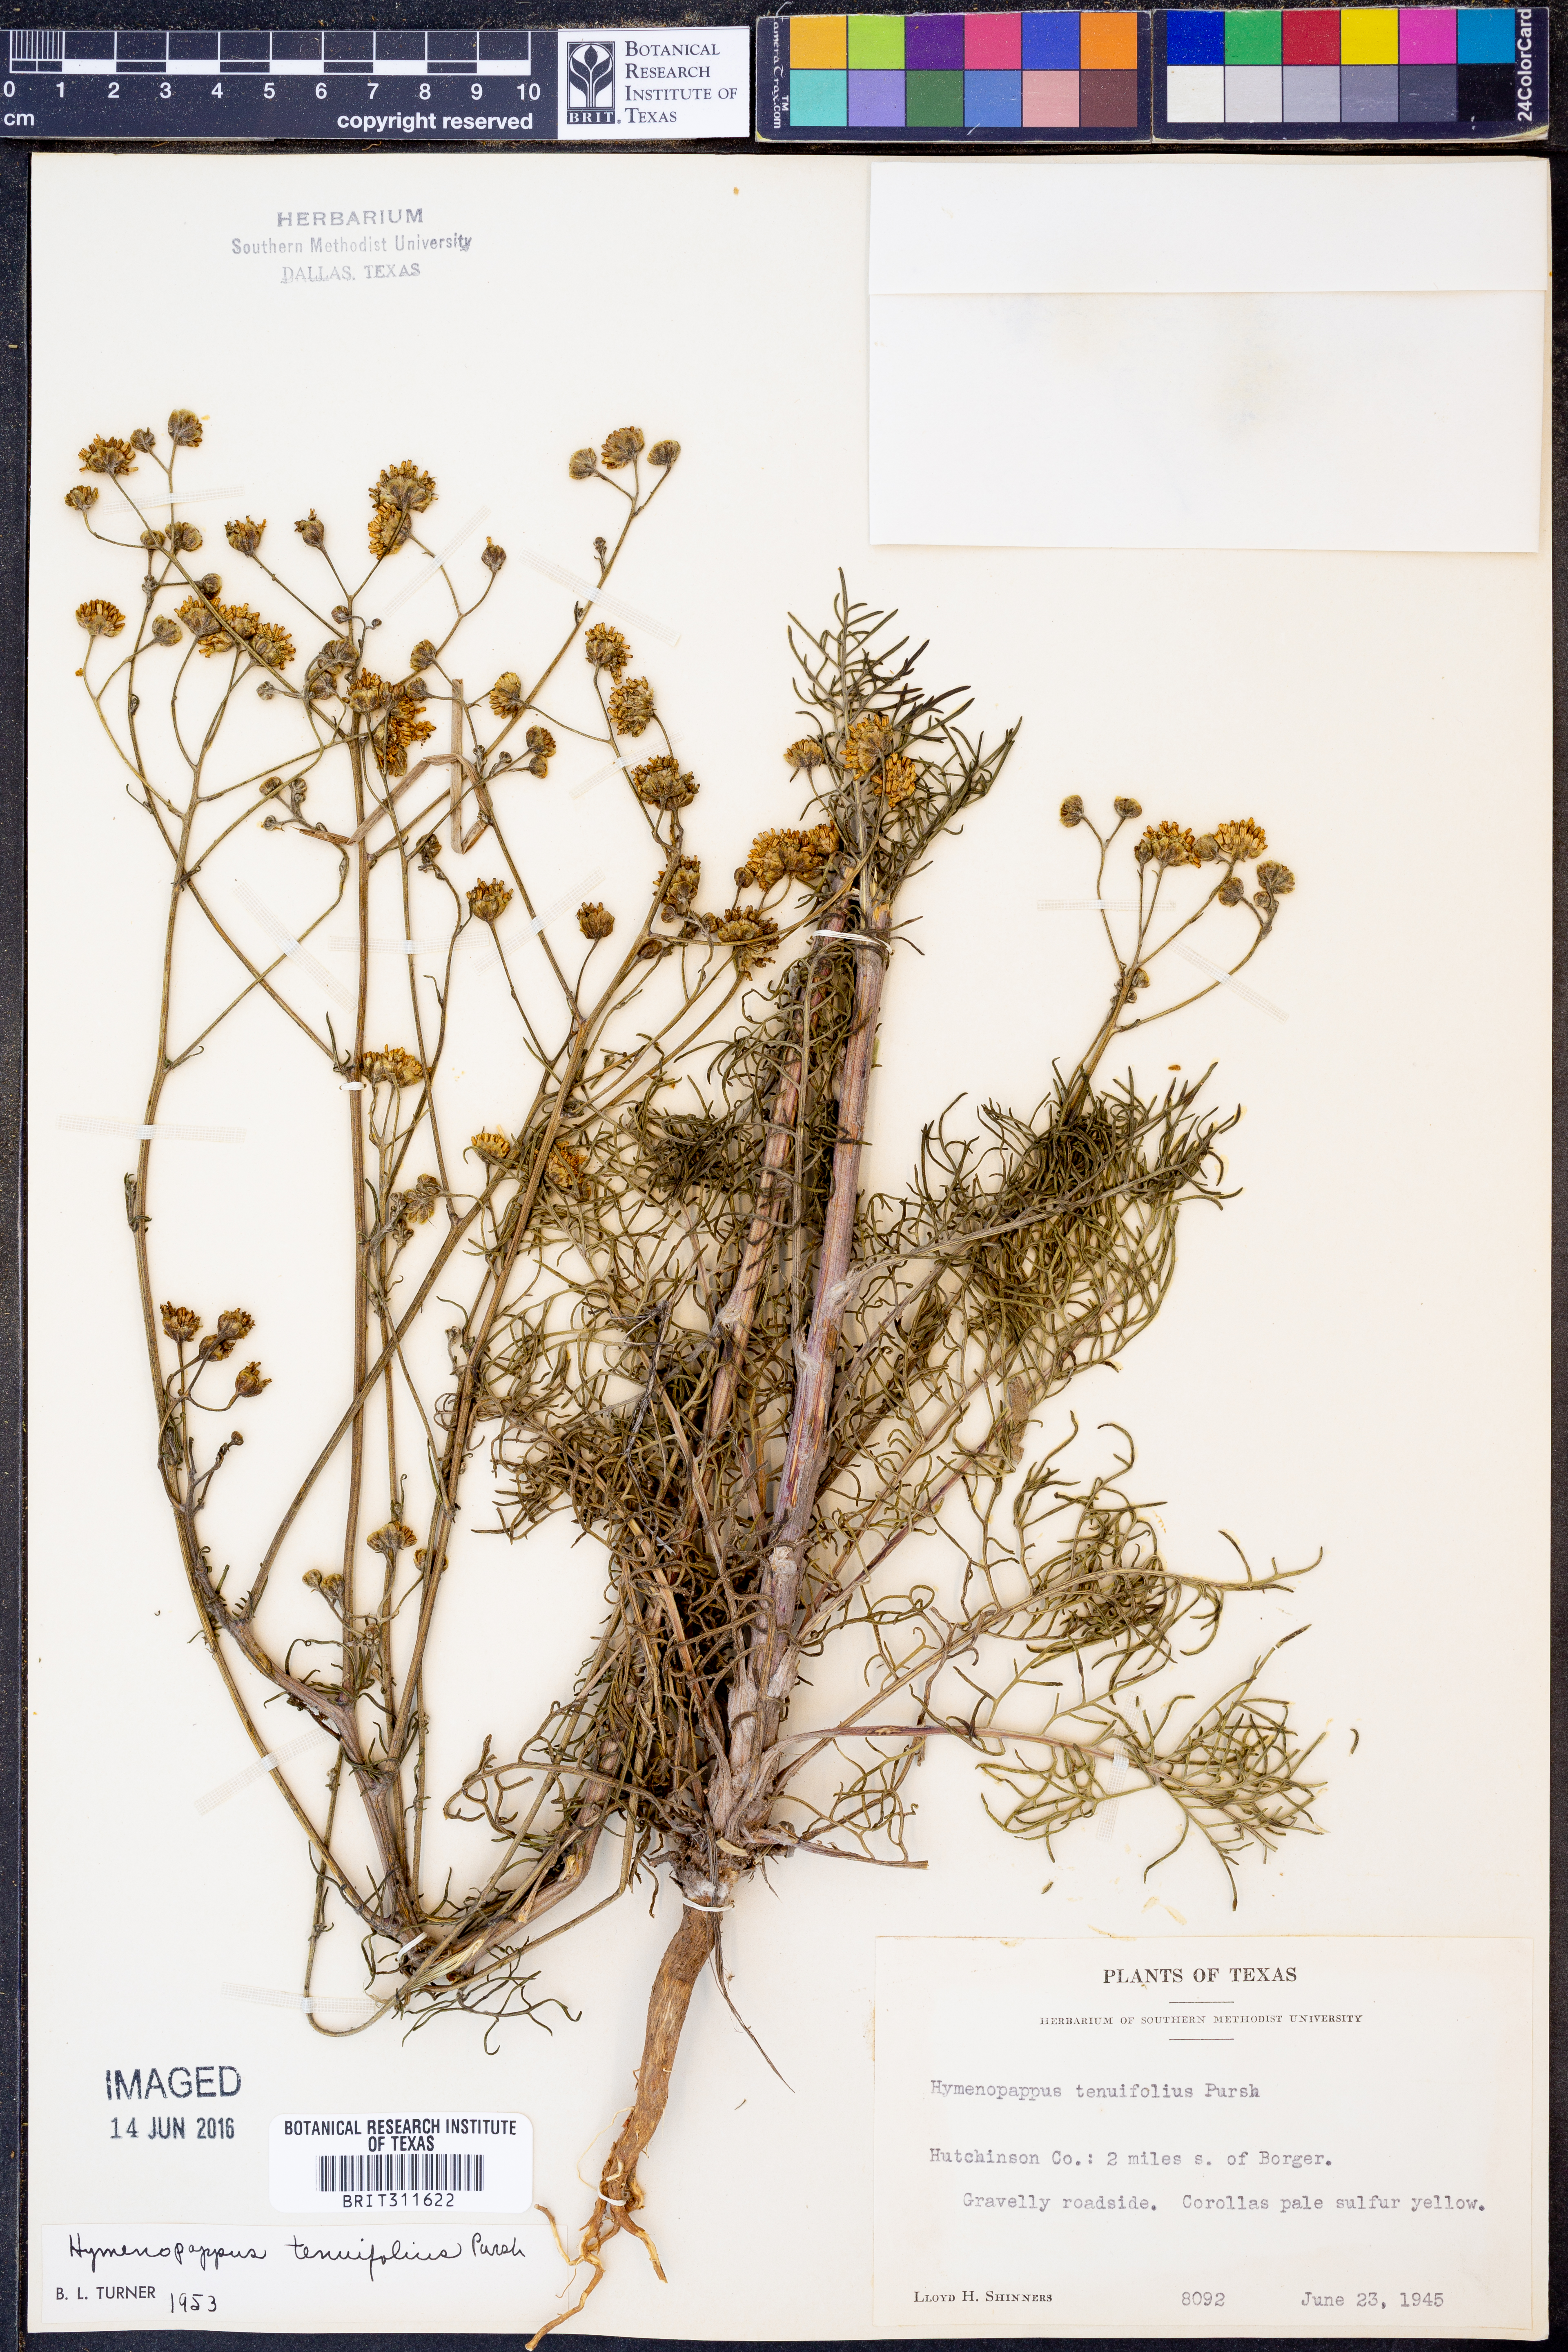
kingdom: Plantae
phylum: Tracheophyta
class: Magnoliopsida
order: Asterales
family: Asteraceae
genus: Hymenopappus
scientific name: Hymenopappus tenuifolius
